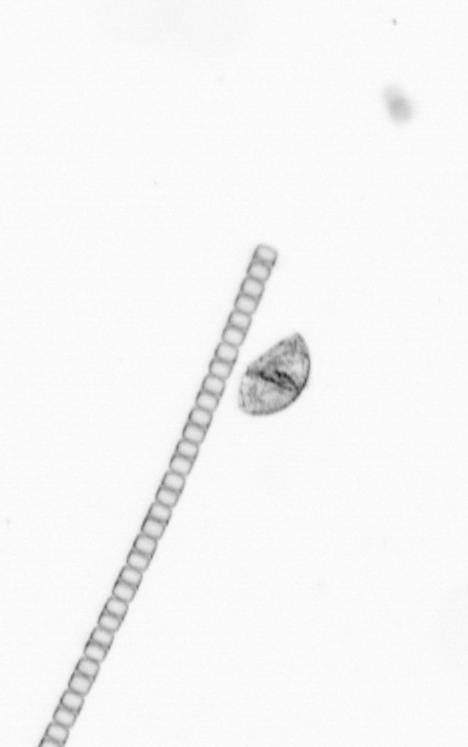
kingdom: Chromista
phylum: Ochrophyta
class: Bacillariophyceae
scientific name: Bacillariophyceae
